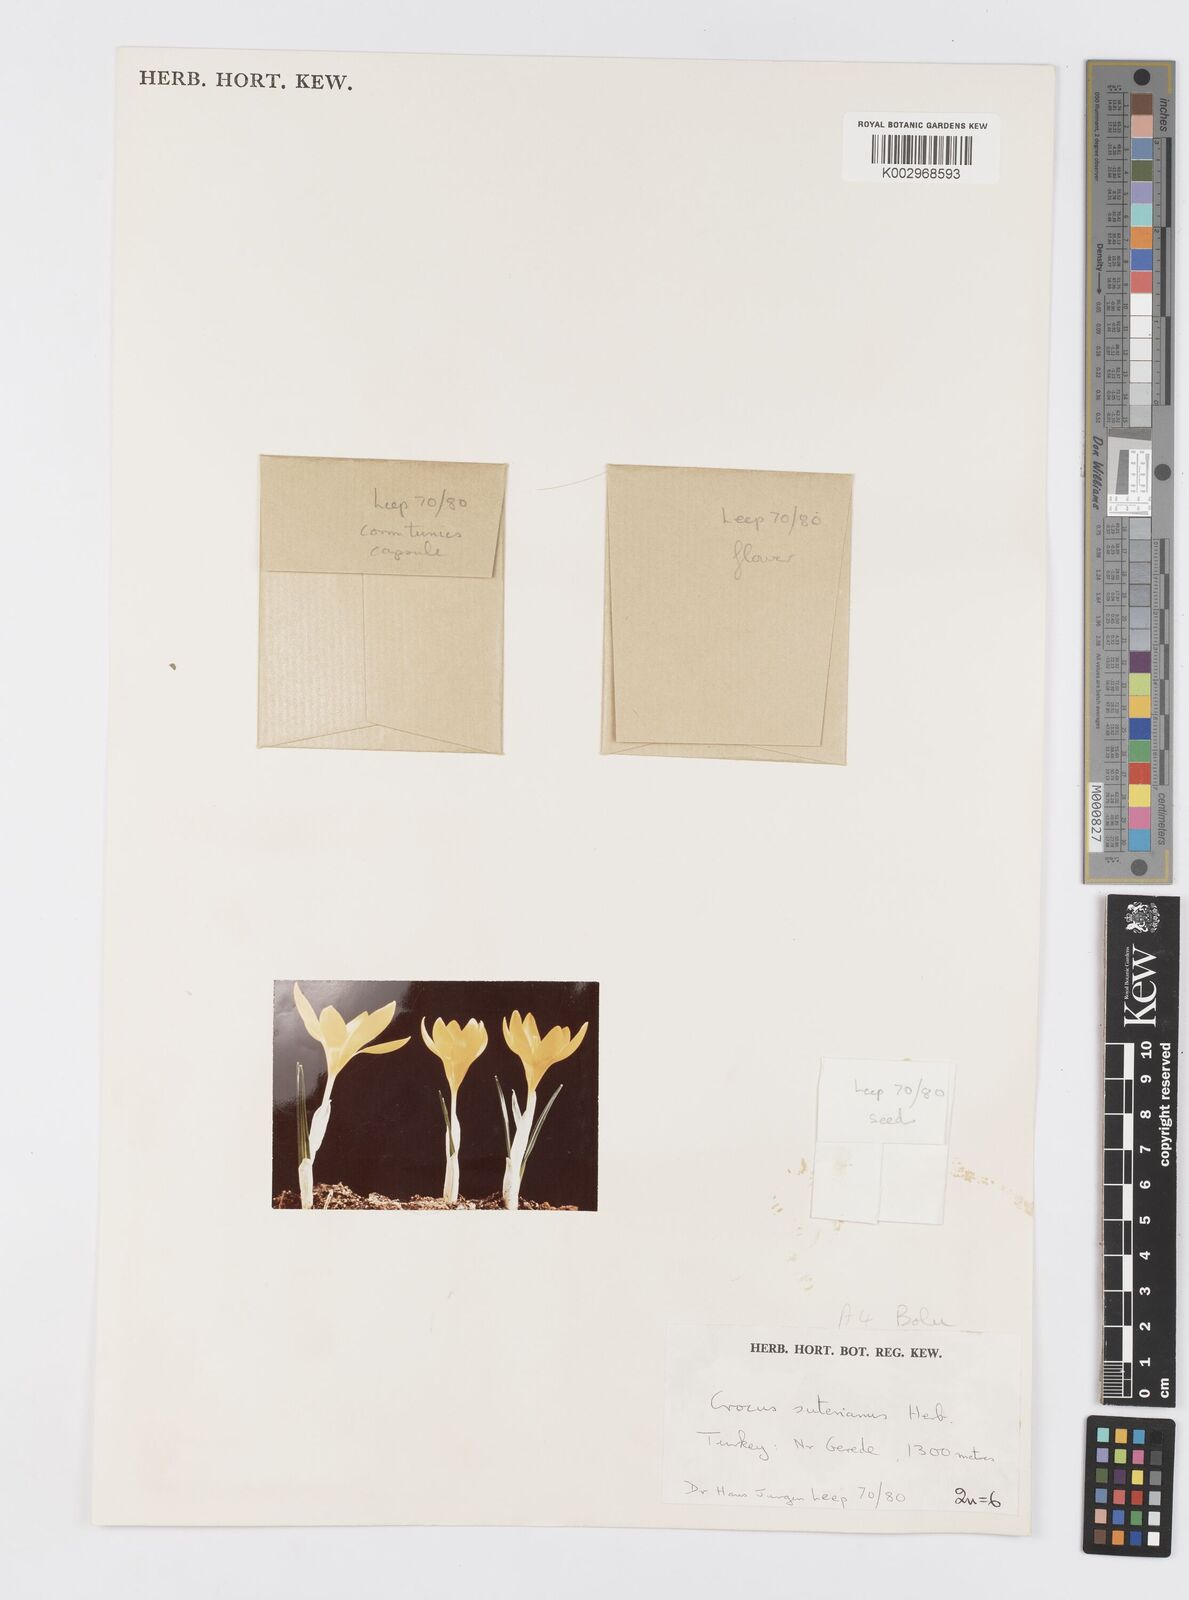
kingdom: Plantae
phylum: Tracheophyta
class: Liliopsida
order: Asparagales
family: Iridaceae
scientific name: Iridaceae
